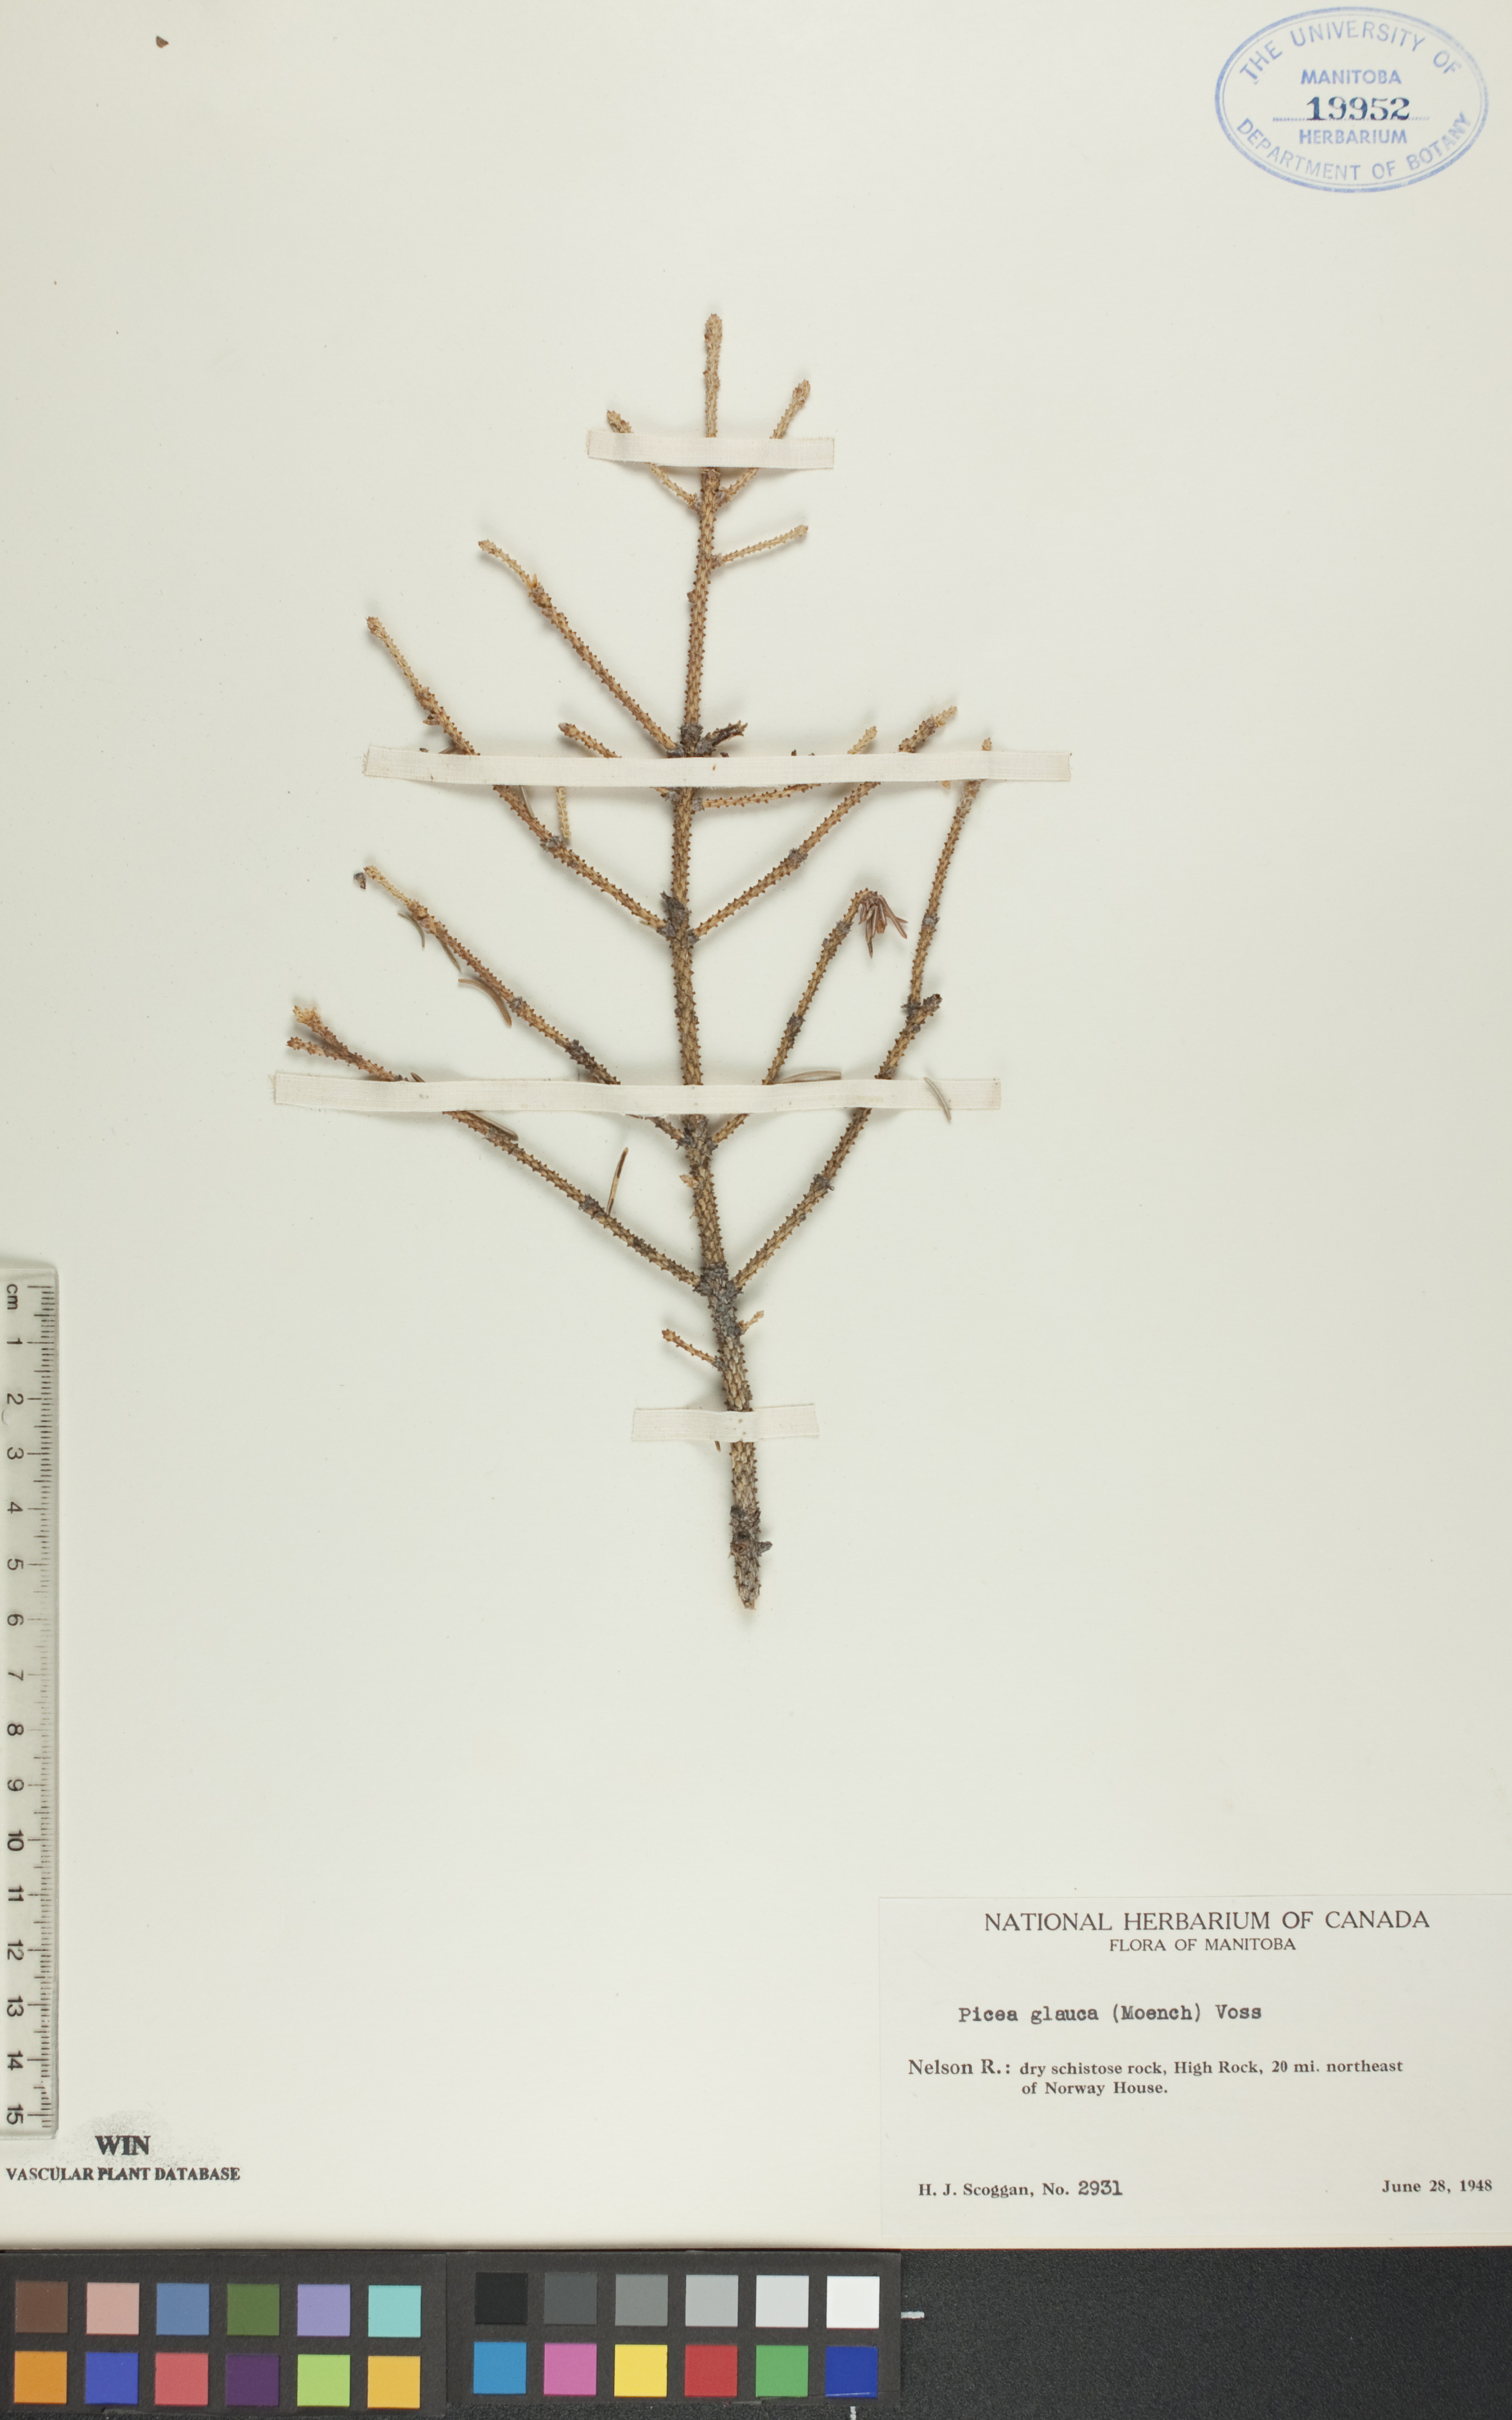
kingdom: Plantae
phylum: Tracheophyta
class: Pinopsida
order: Pinales
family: Pinaceae
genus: Picea
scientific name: Picea glauca
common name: White spruce
